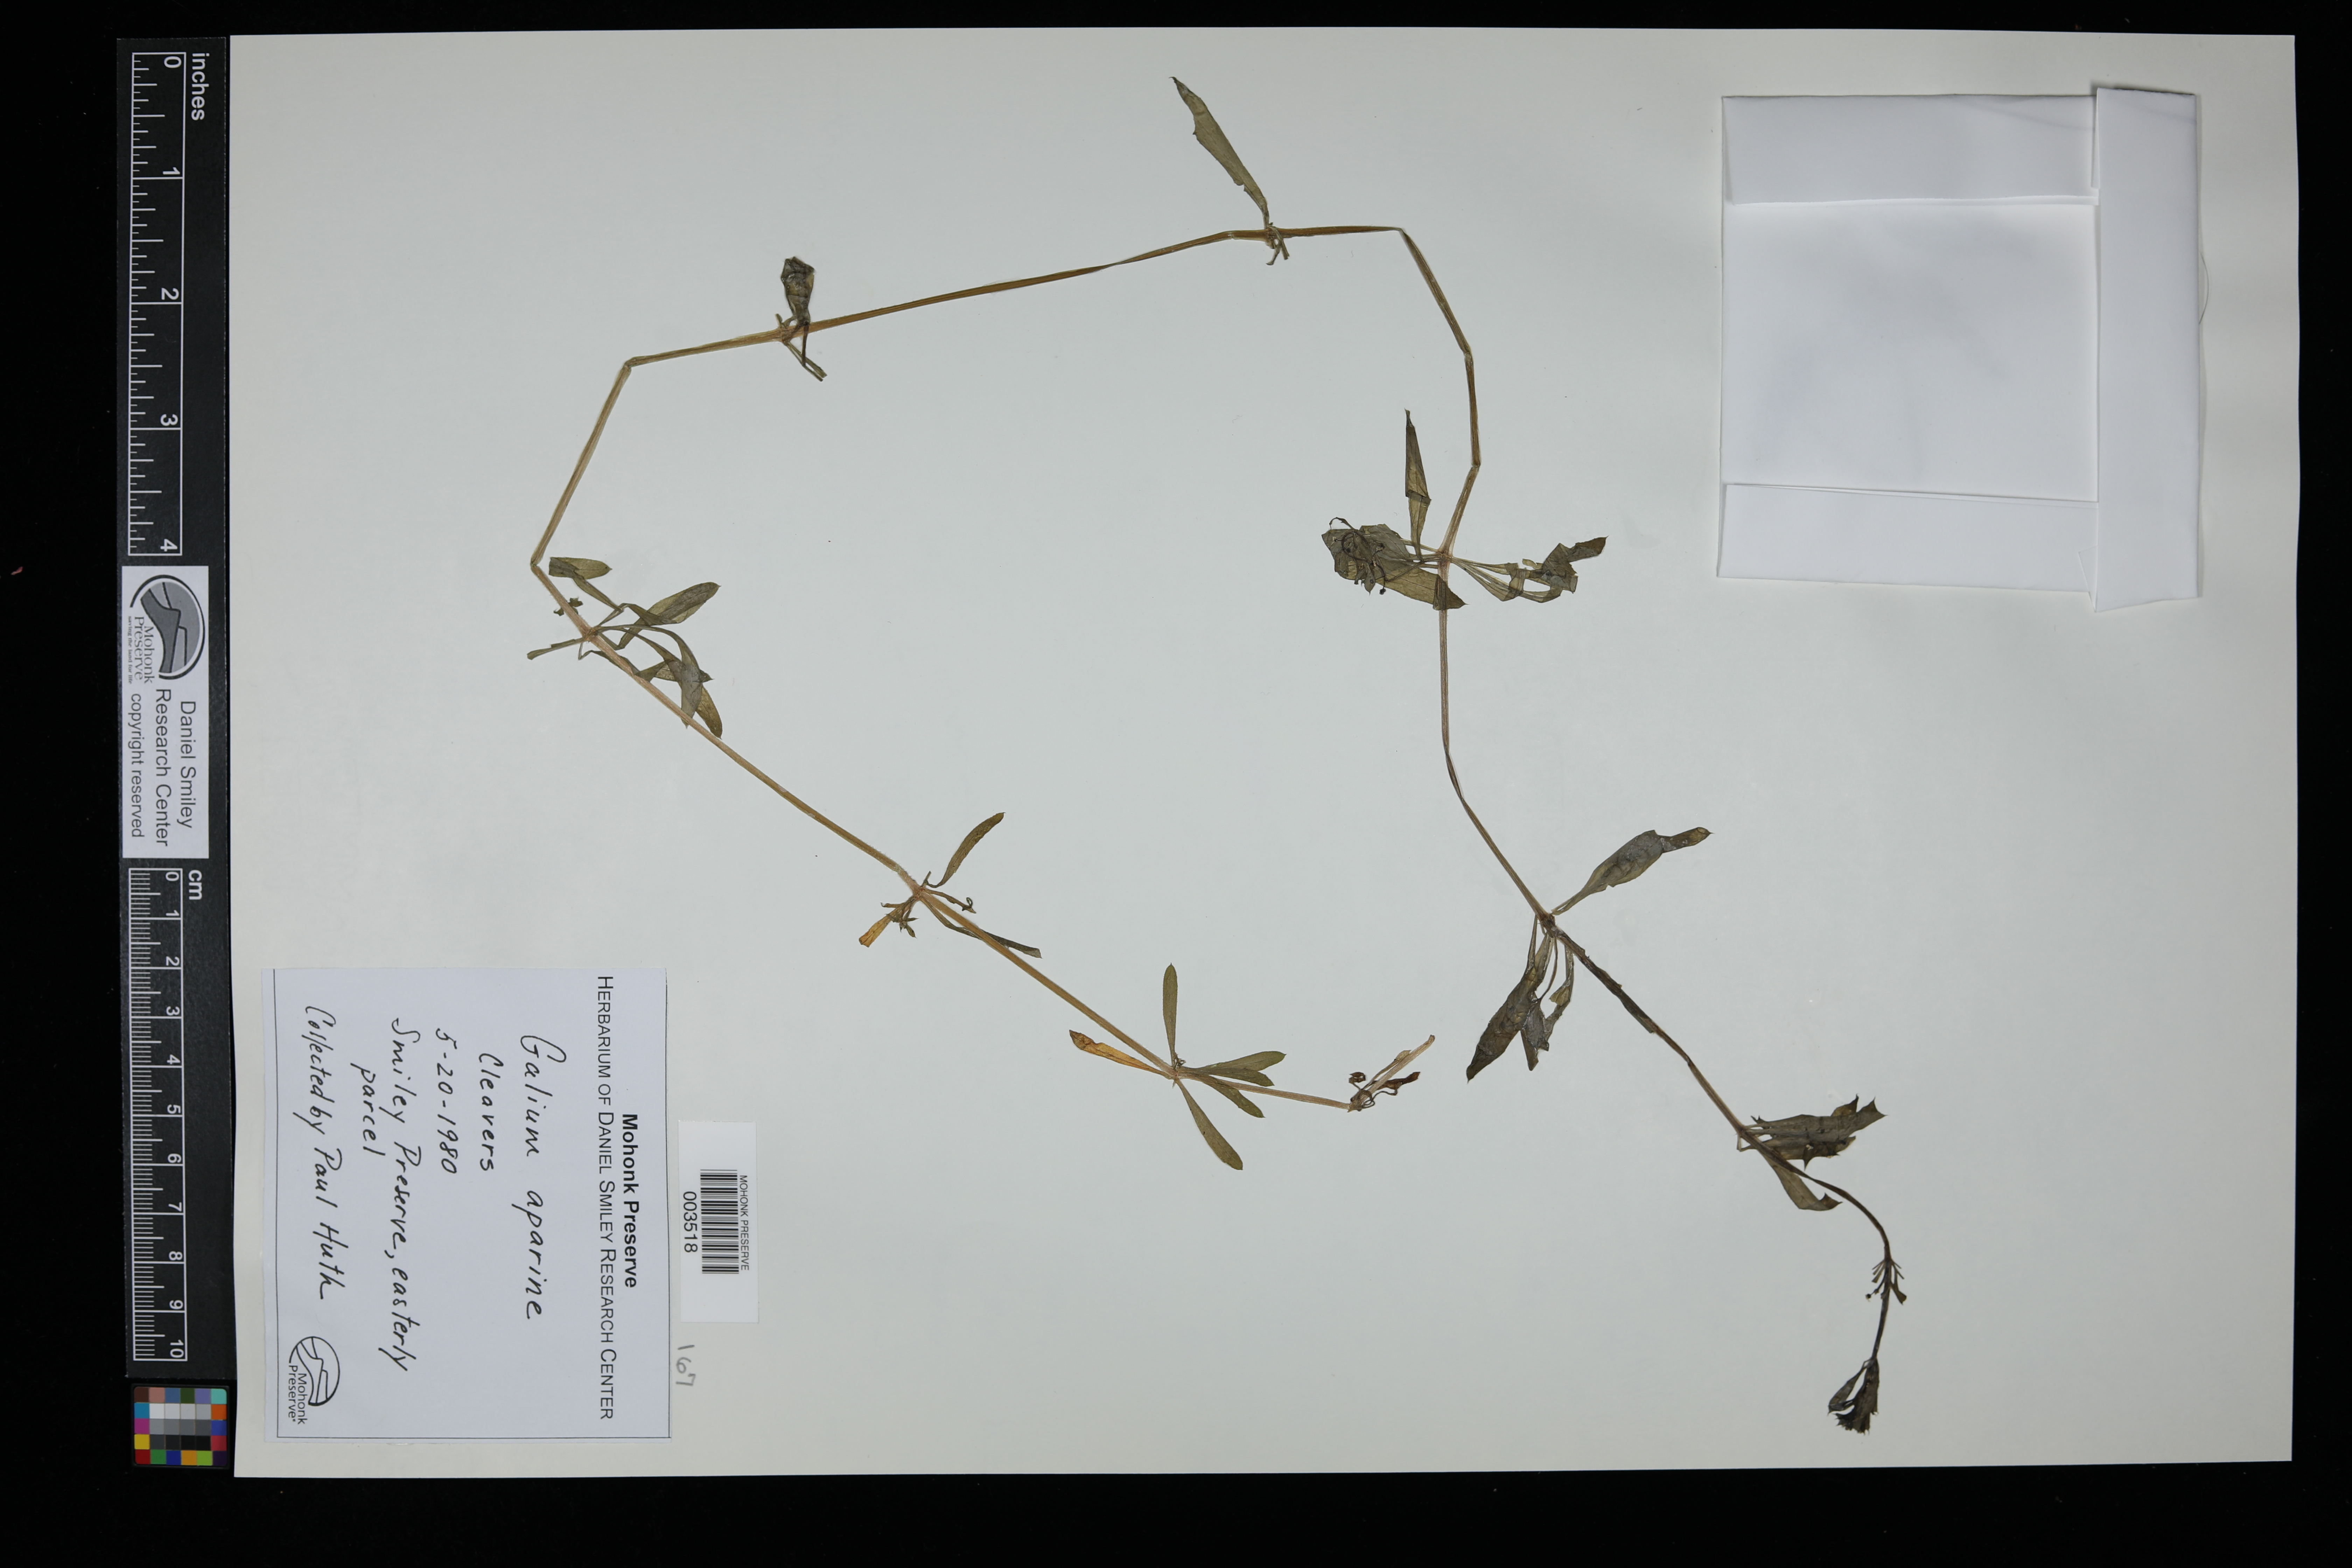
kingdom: Plantae
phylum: Tracheophyta
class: Magnoliopsida
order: Gentianales
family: Rubiaceae
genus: Galium
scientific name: Galium aparine
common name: Cleavers
